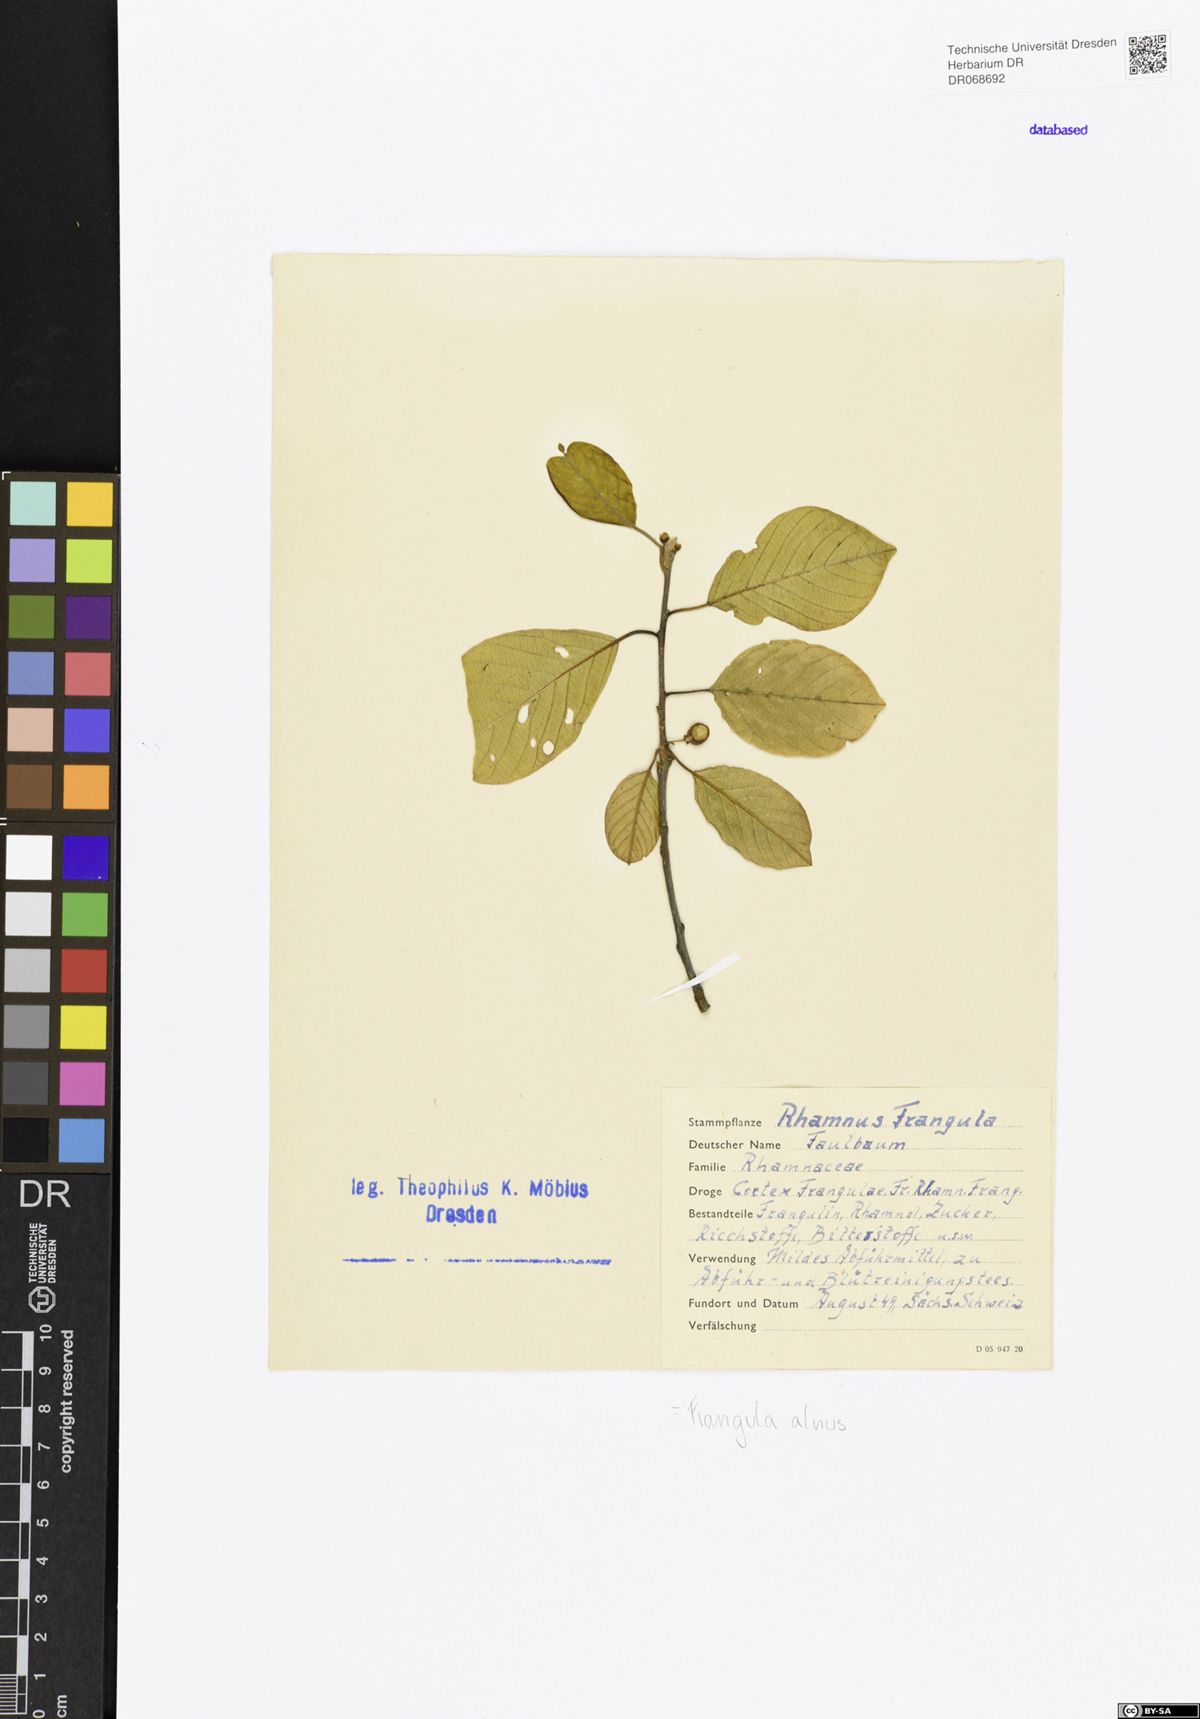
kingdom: Plantae
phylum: Tracheophyta
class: Magnoliopsida
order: Rosales
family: Rhamnaceae
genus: Frangula
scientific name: Frangula alnus
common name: Alder buckthorn
